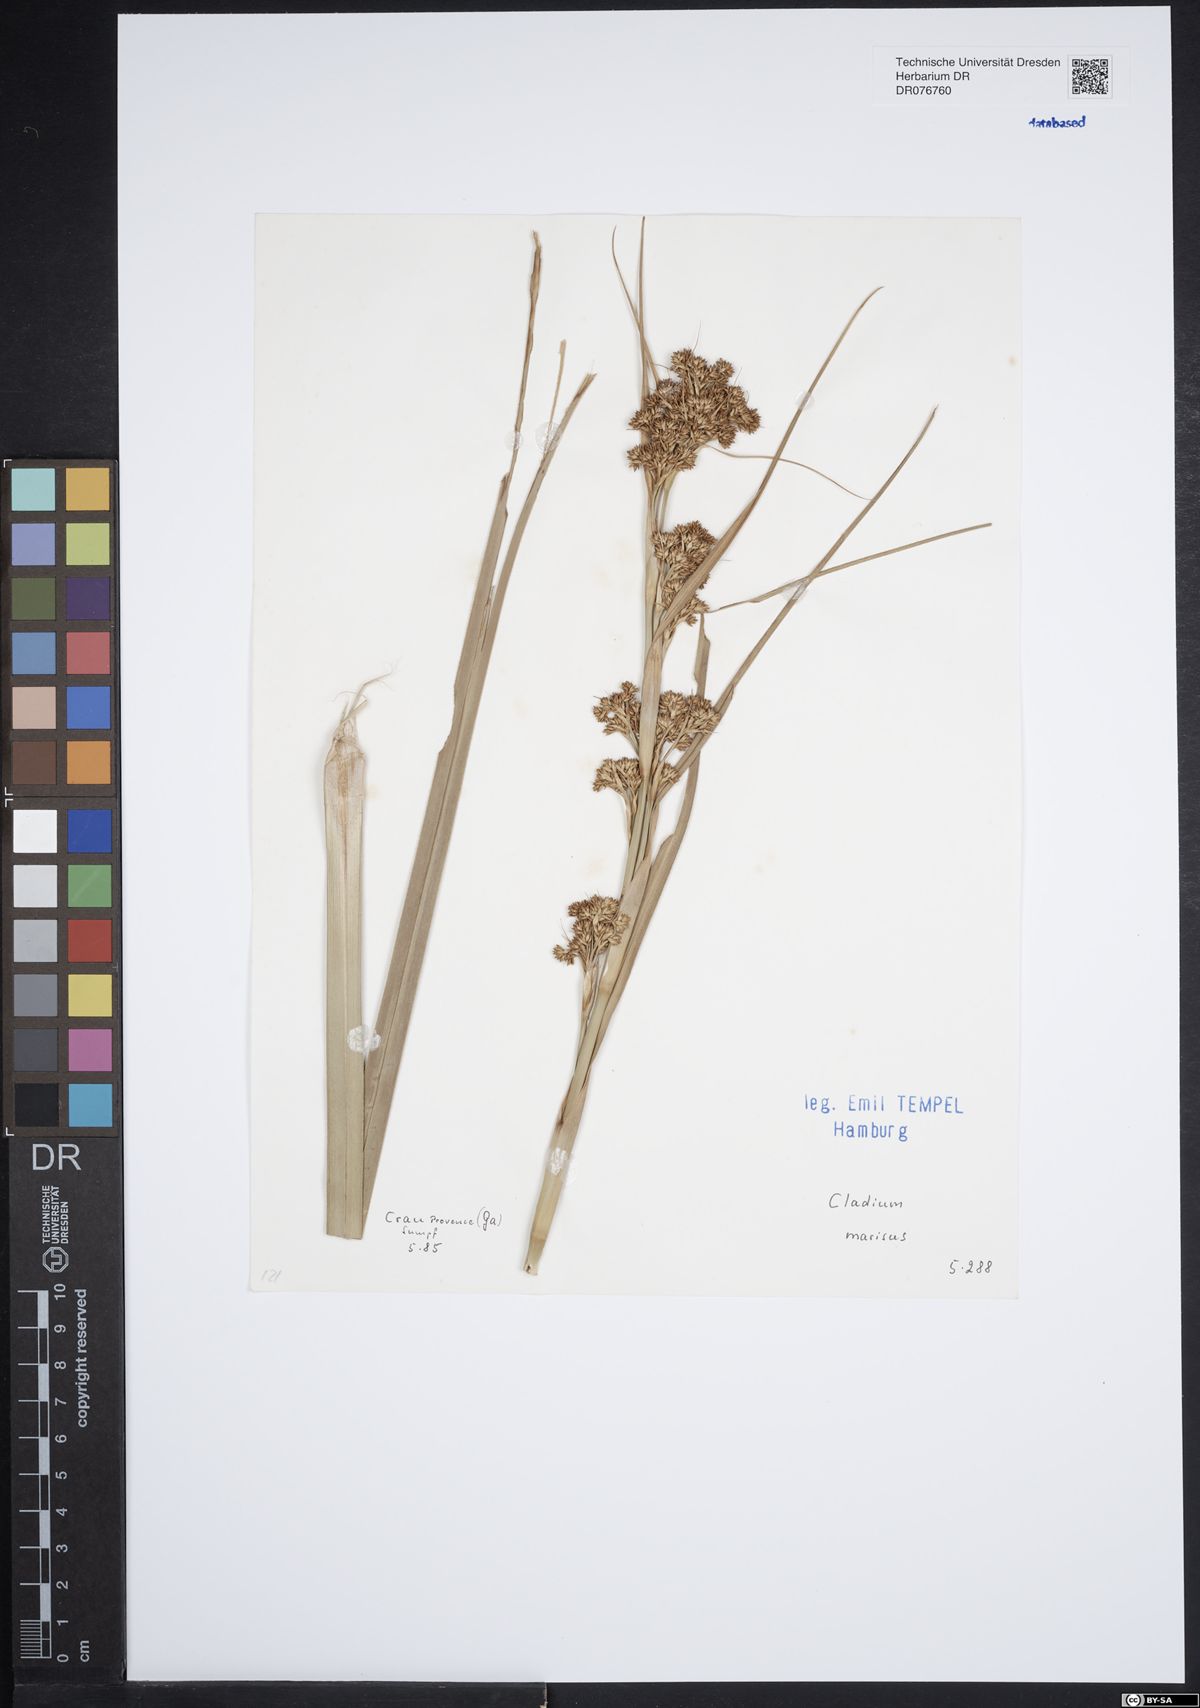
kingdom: Plantae
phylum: Tracheophyta
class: Liliopsida
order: Poales
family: Cyperaceae
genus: Cladium
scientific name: Cladium mariscus
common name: Great fen-sedge
